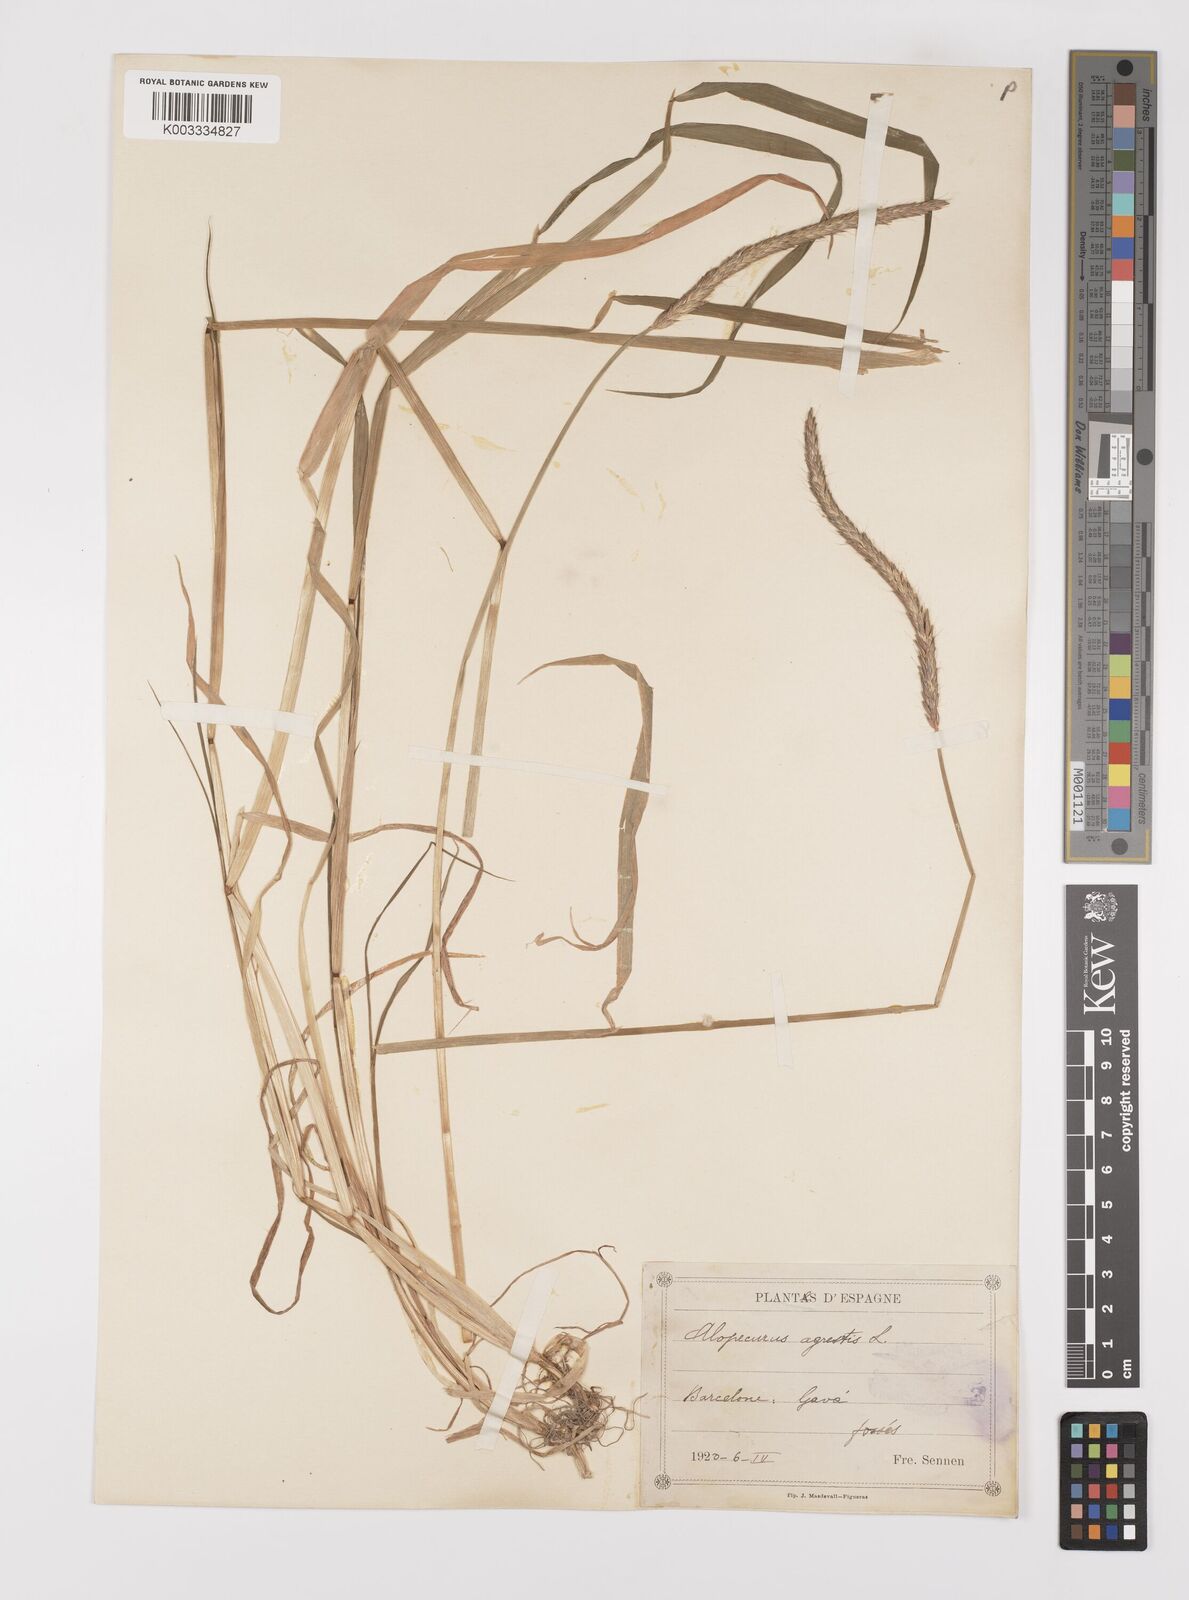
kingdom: Plantae
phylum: Tracheophyta
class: Liliopsida
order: Poales
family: Poaceae
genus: Alopecurus
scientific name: Alopecurus myosuroides
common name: Black-grass
